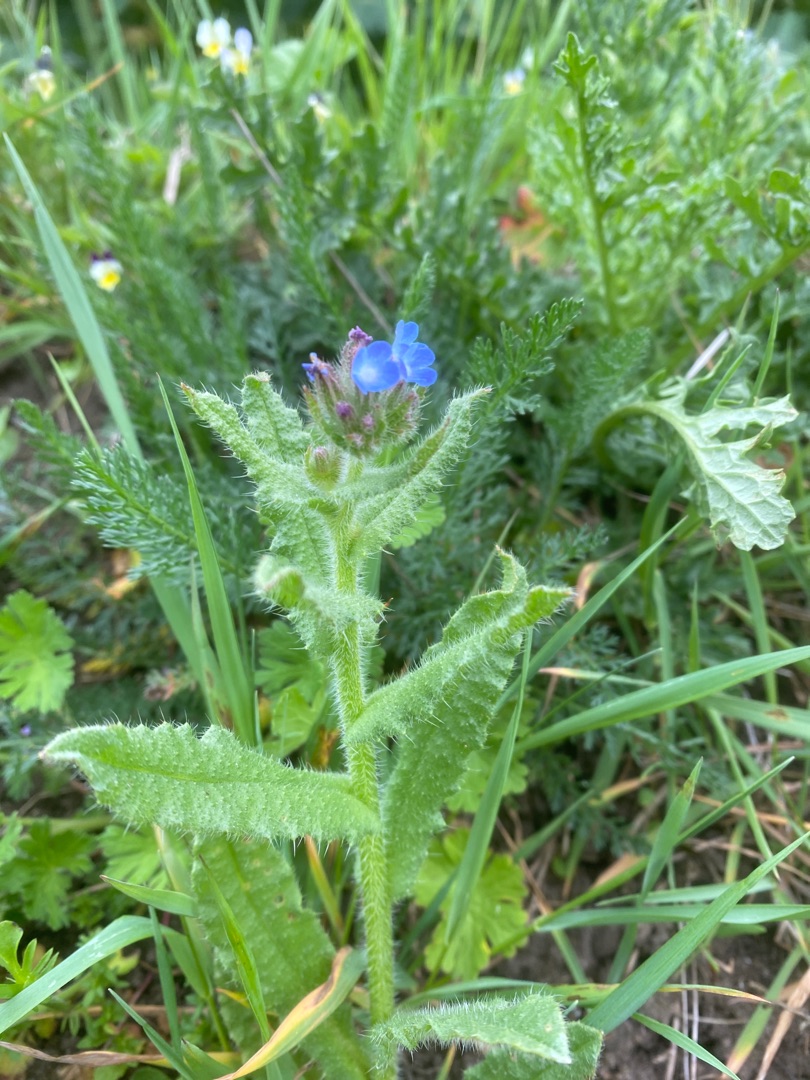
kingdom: Plantae
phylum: Tracheophyta
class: Magnoliopsida
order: Boraginales
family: Boraginaceae
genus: Lycopsis
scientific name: Lycopsis arvensis
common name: Krumhals
